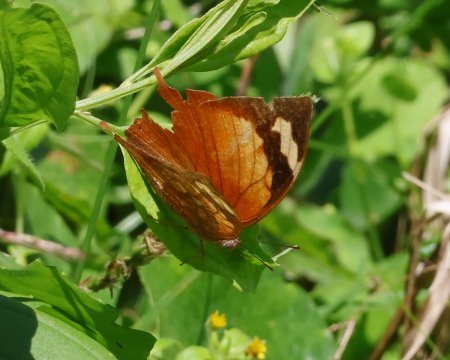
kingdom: Animalia
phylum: Arthropoda
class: Insecta
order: Lepidoptera
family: Nymphalidae
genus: Fountainea
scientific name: Fountainea
